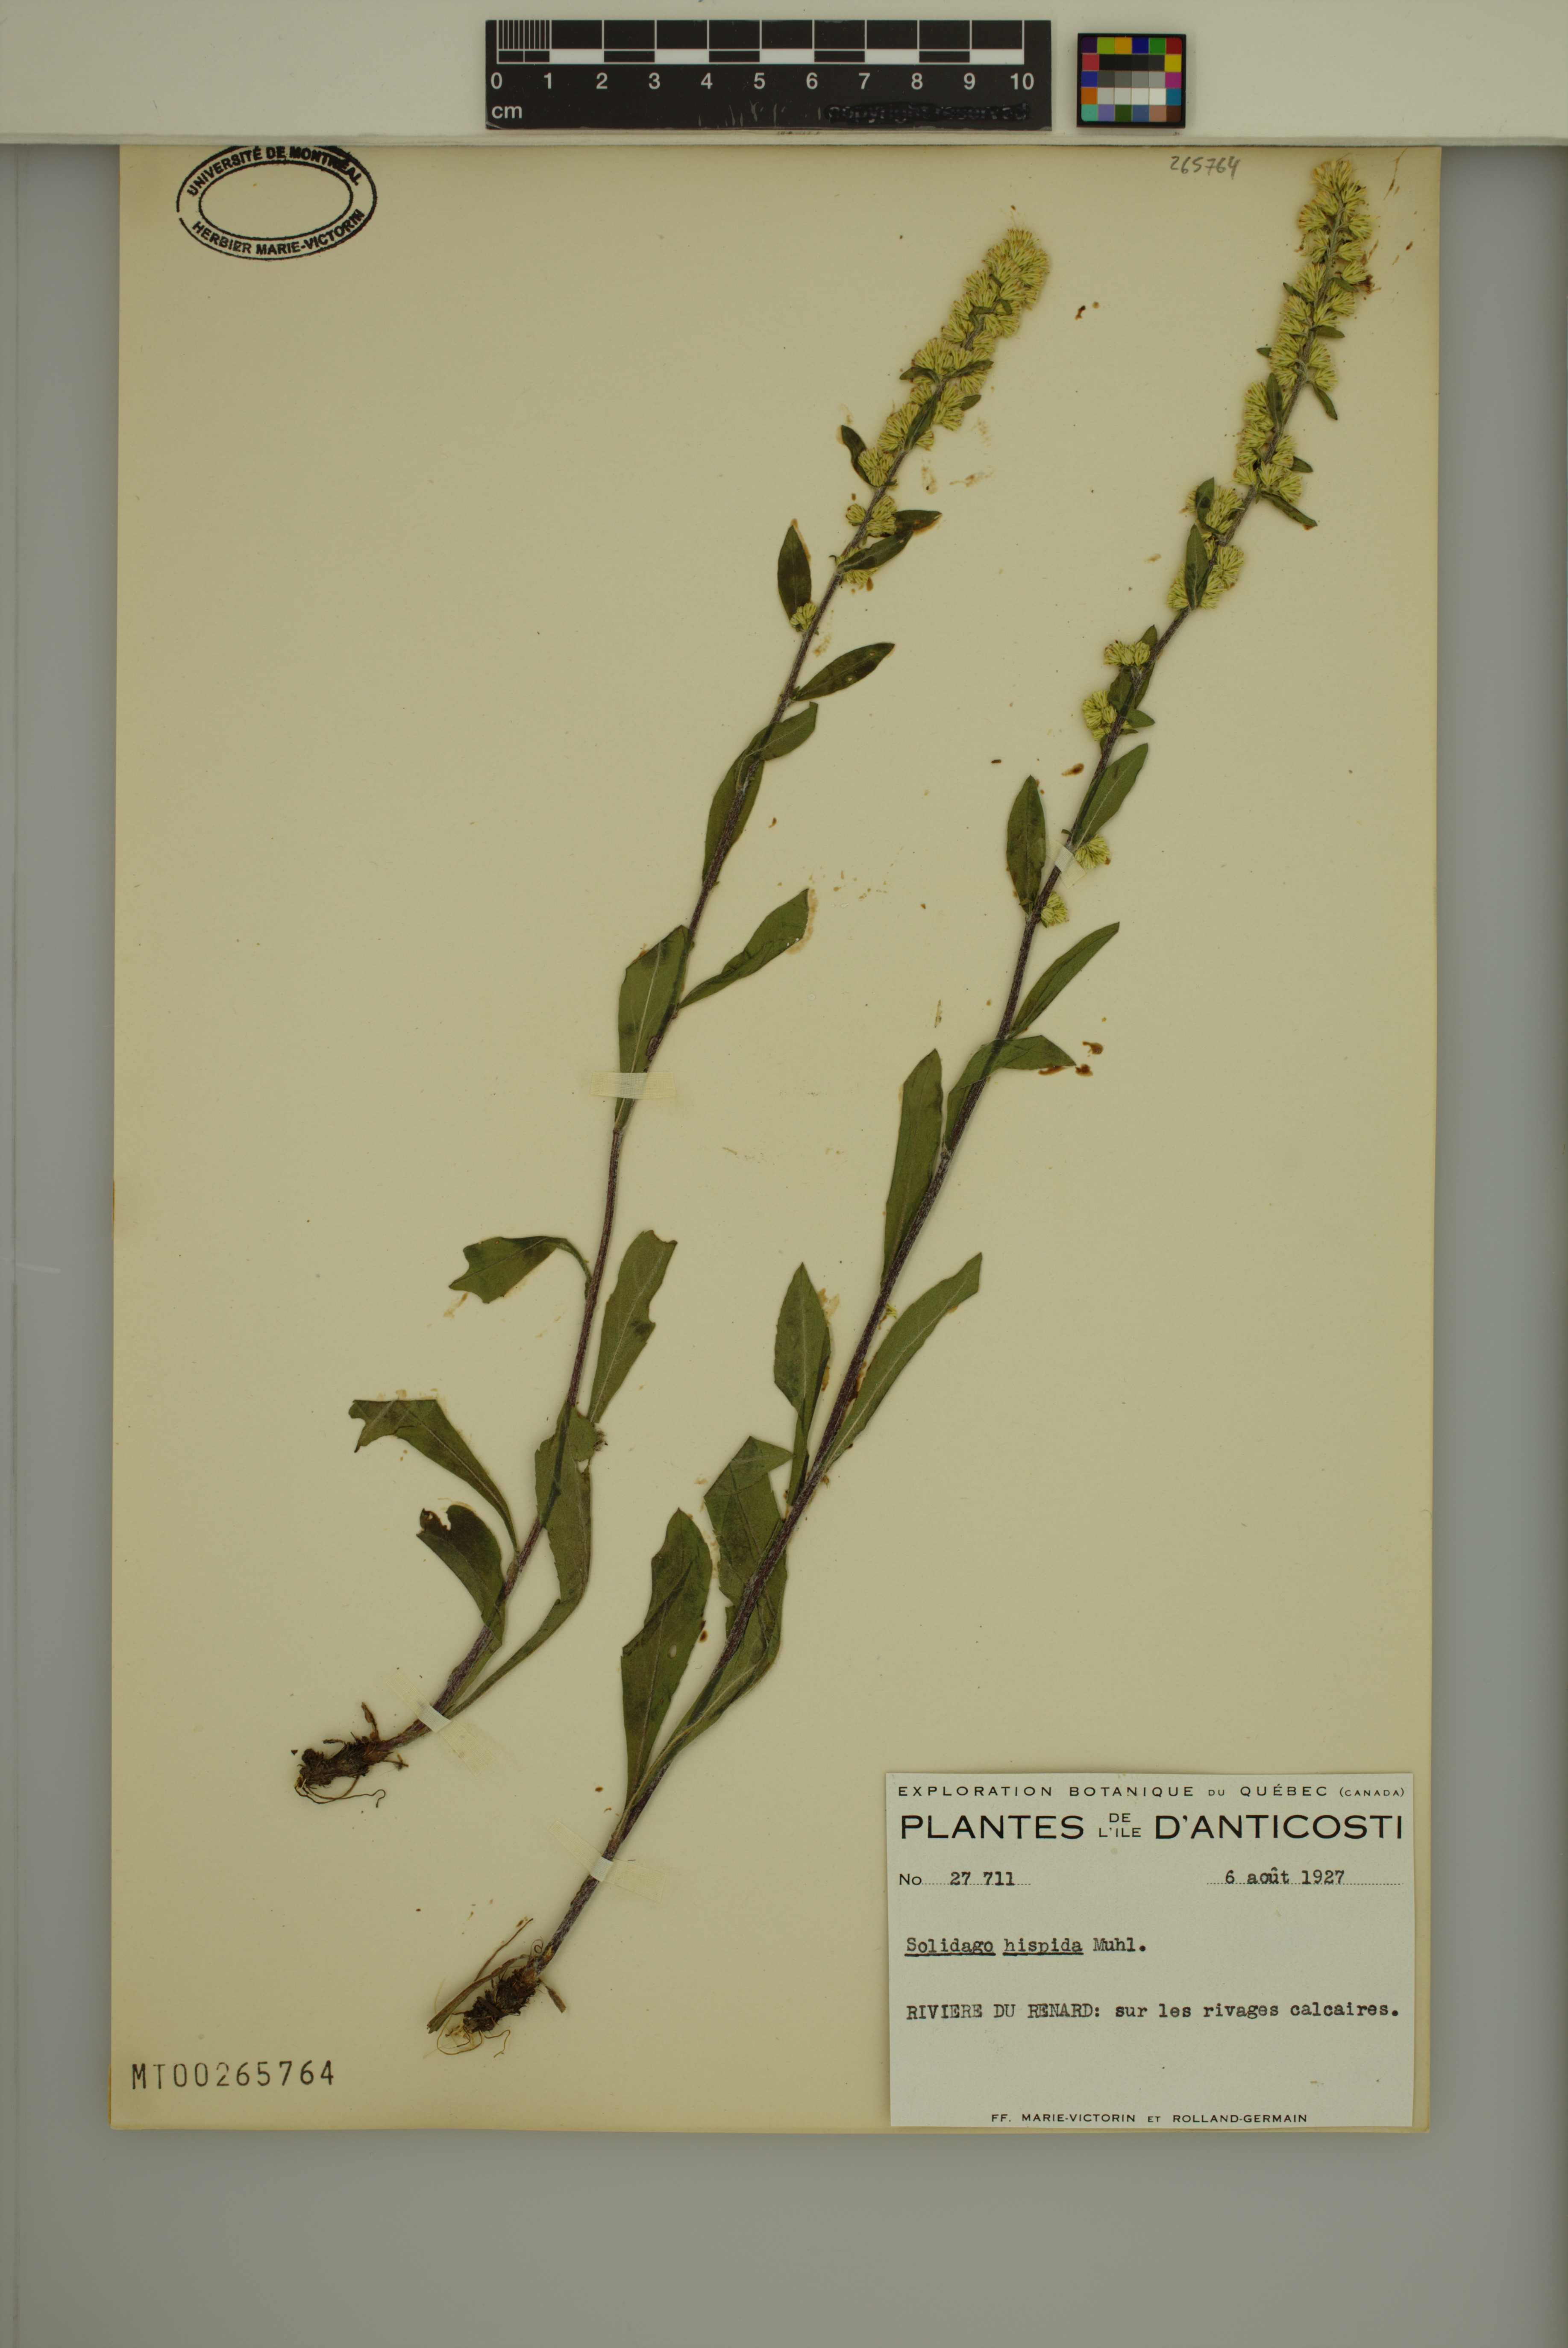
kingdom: Plantae
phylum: Tracheophyta
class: Magnoliopsida
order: Asterales
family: Asteraceae
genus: Solidago
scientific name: Solidago hispida
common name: Hairy goldenrod
